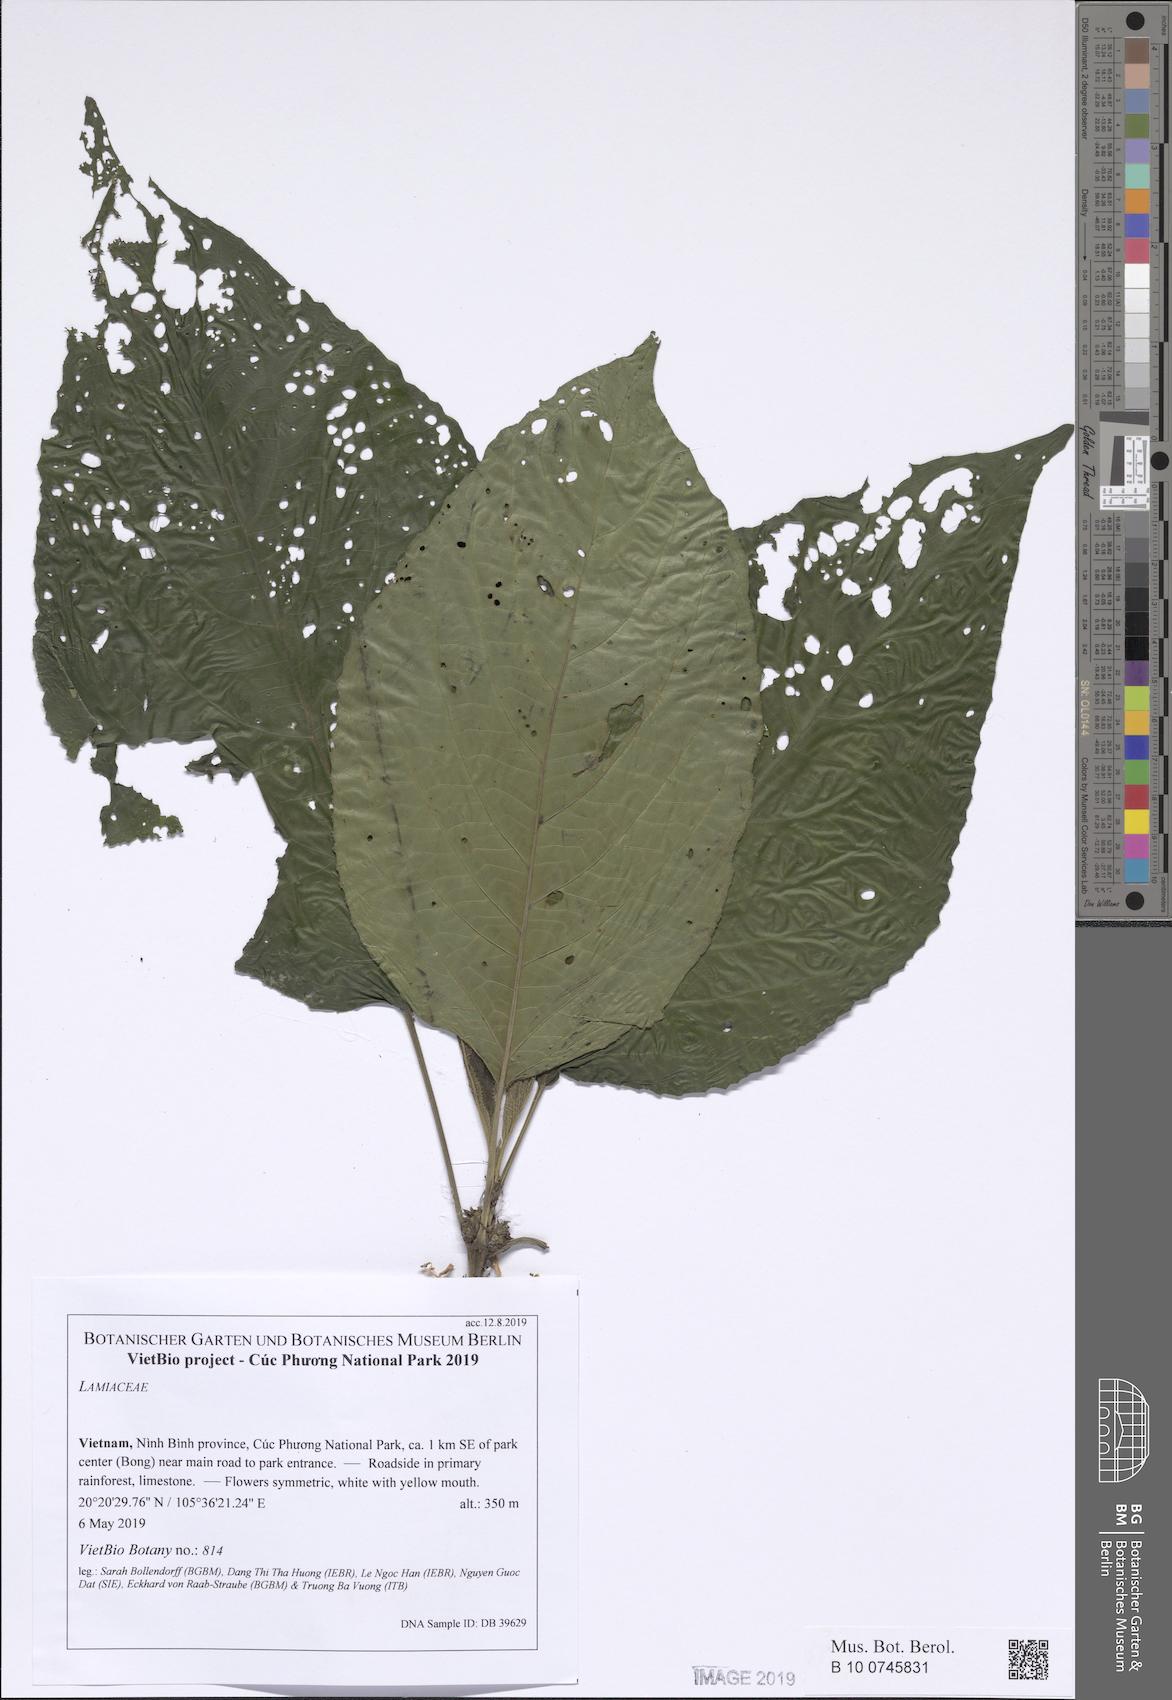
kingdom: Plantae
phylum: Tracheophyta
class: Magnoliopsida
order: Lamiales
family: Lamiaceae
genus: Gomphostemma
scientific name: Gomphostemma
